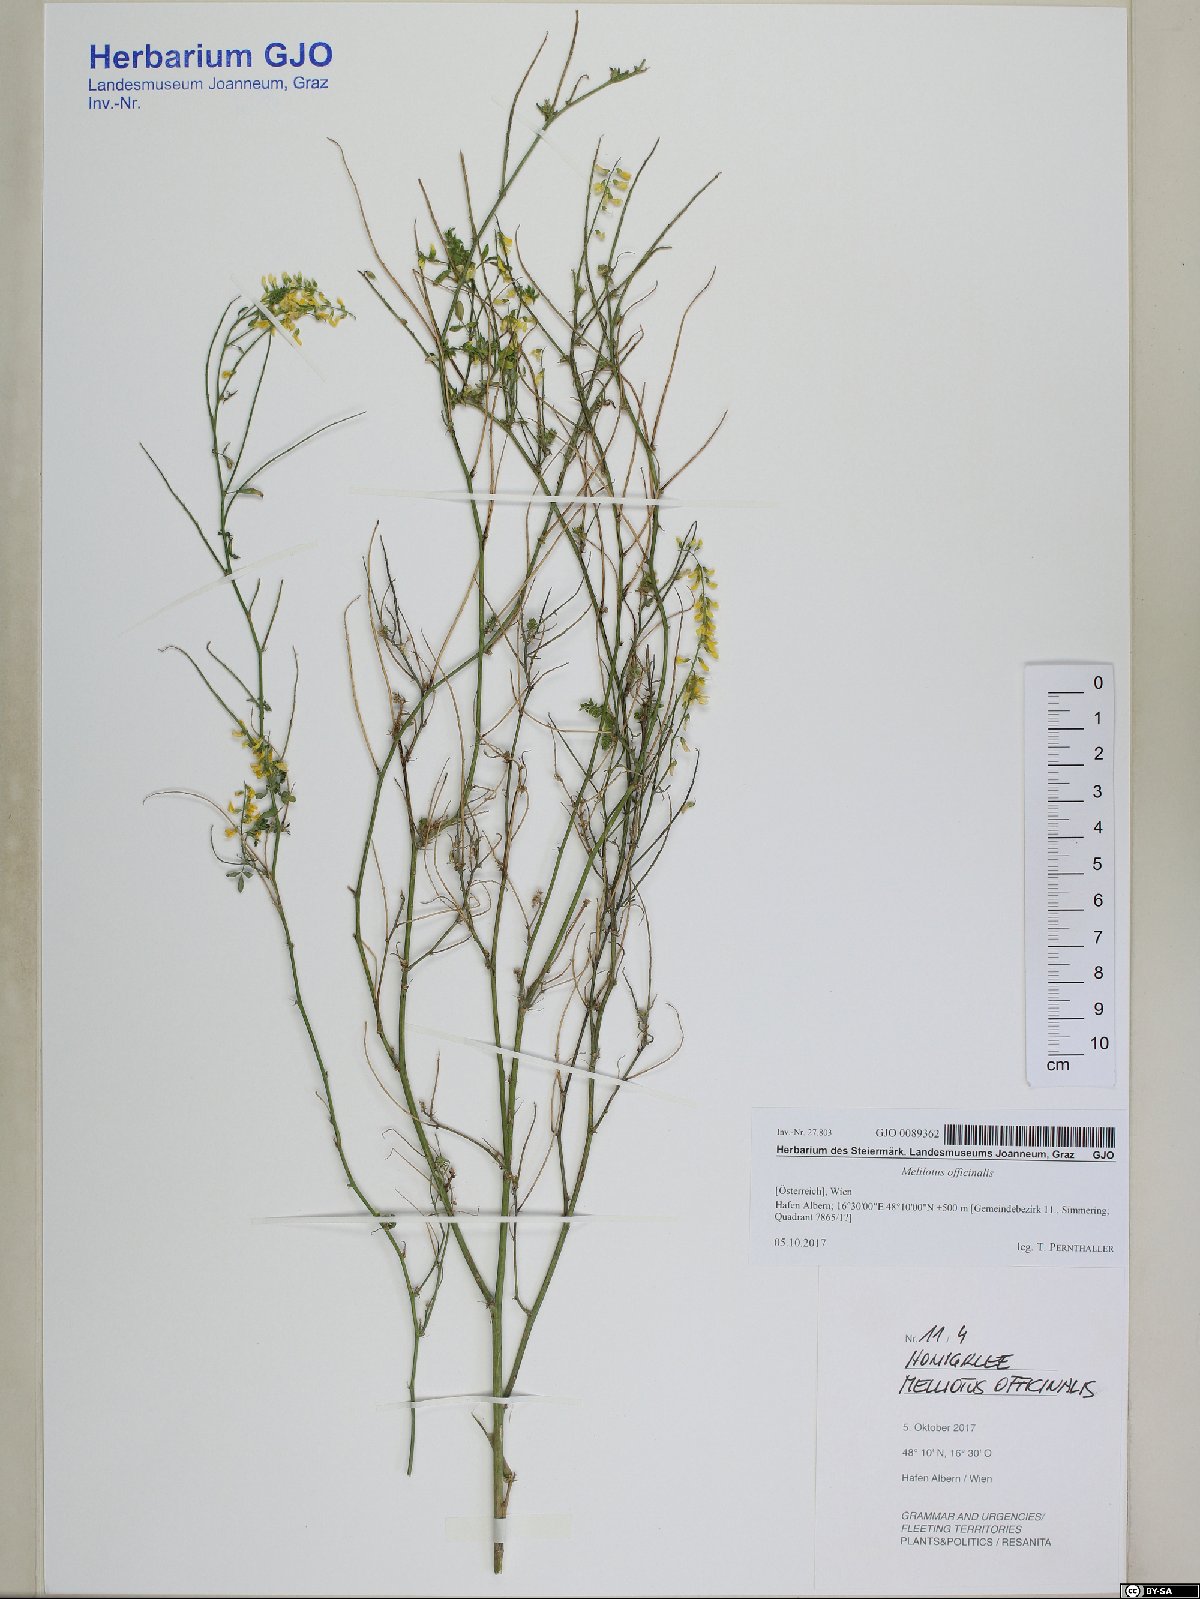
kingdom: Plantae
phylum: Tracheophyta
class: Magnoliopsida
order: Fabales
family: Fabaceae
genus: Melilotus
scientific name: Melilotus officinalis
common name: Sweetclover
